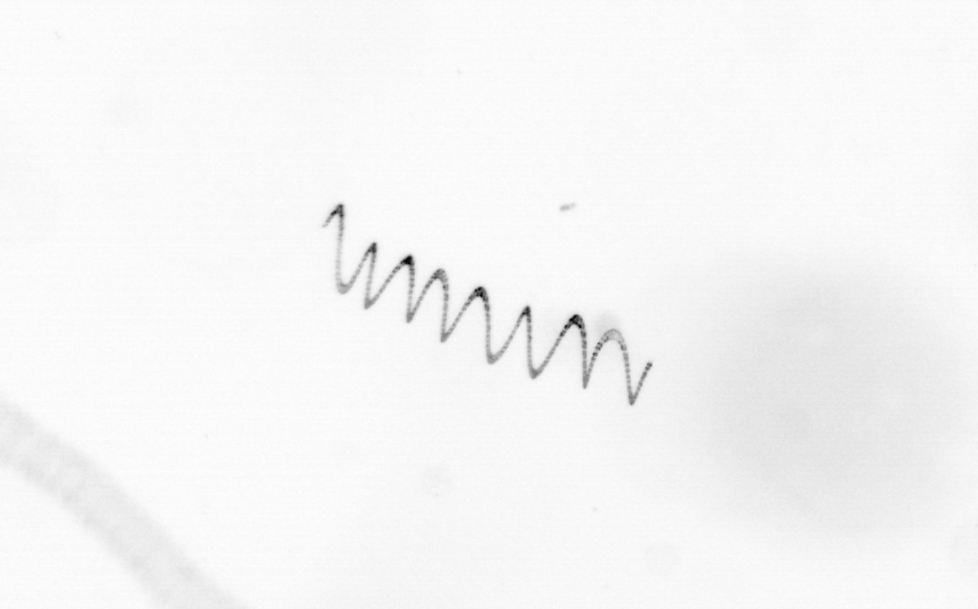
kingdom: Chromista
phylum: Ochrophyta
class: Bacillariophyceae
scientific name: Bacillariophyceae
